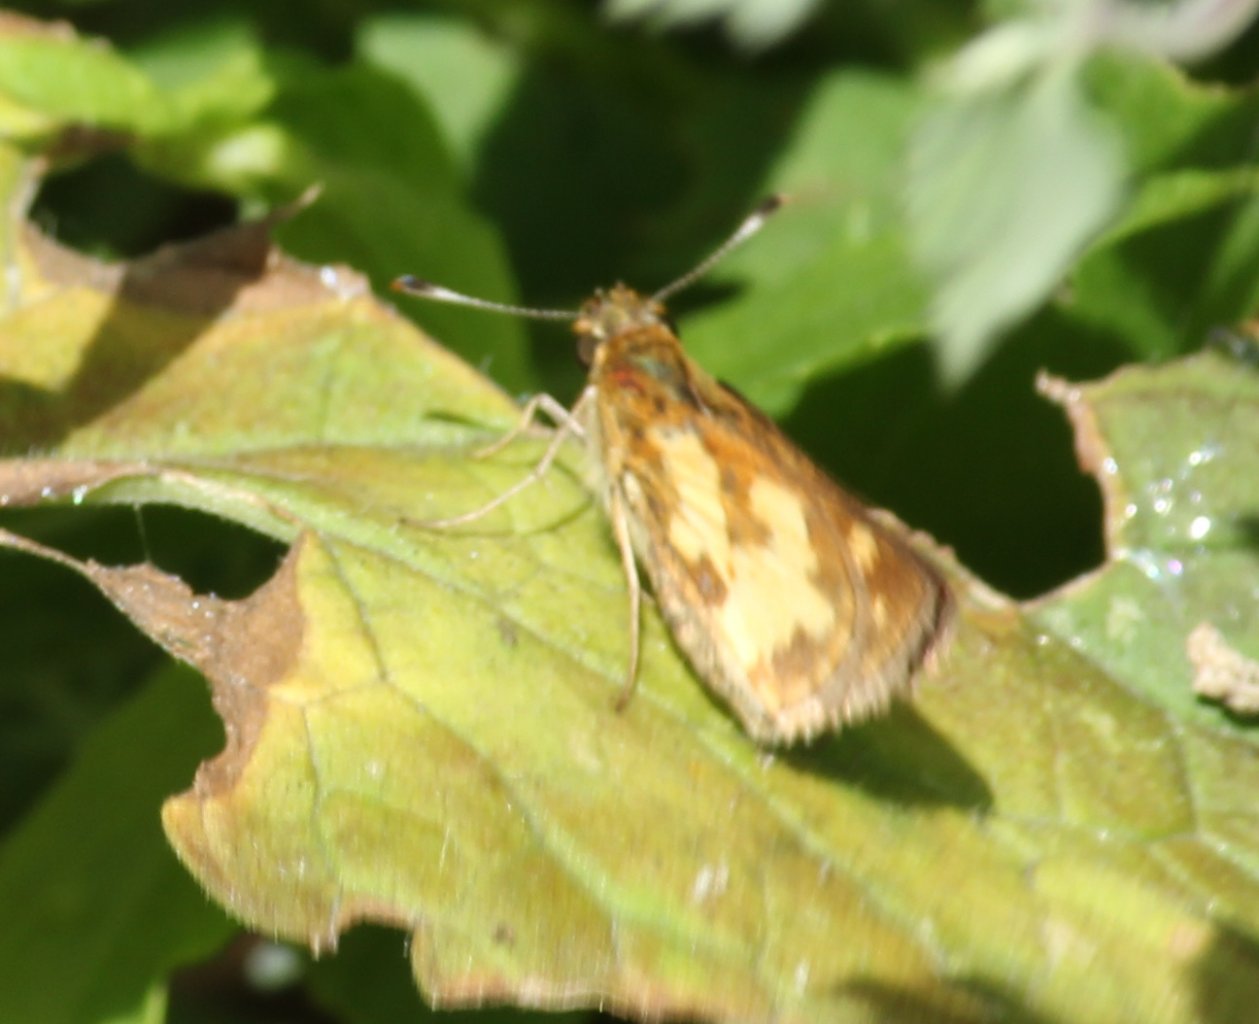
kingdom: Animalia
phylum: Arthropoda
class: Insecta
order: Lepidoptera
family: Hesperiidae
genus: Polites
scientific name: Polites coras
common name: Peck's Skipper
